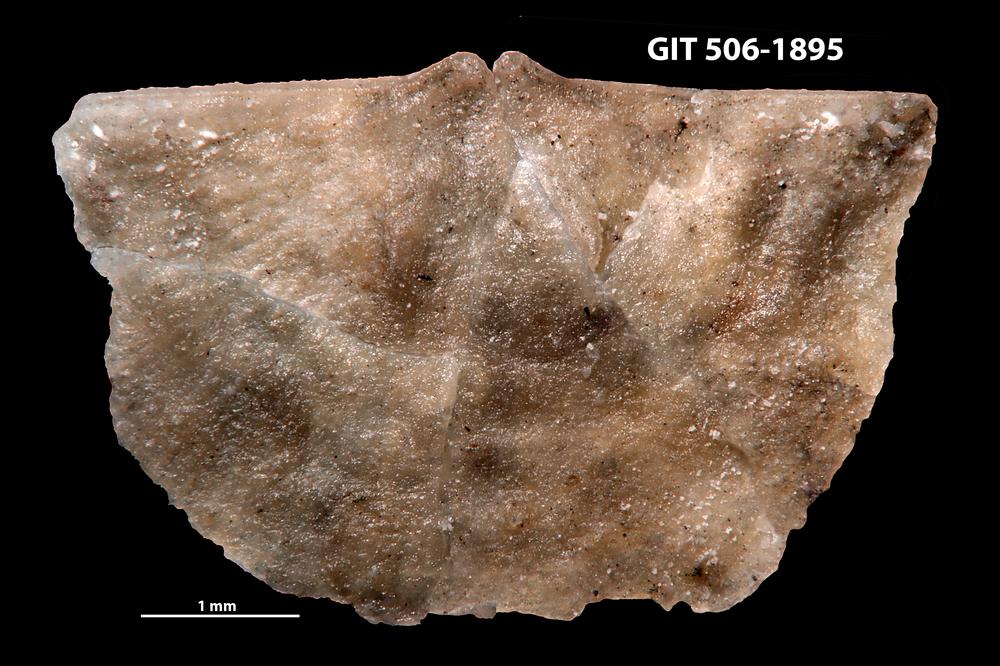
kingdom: Animalia
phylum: Brachiopoda
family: Strophomenidae
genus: Leptaena
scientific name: Leptaena haverfordensis
